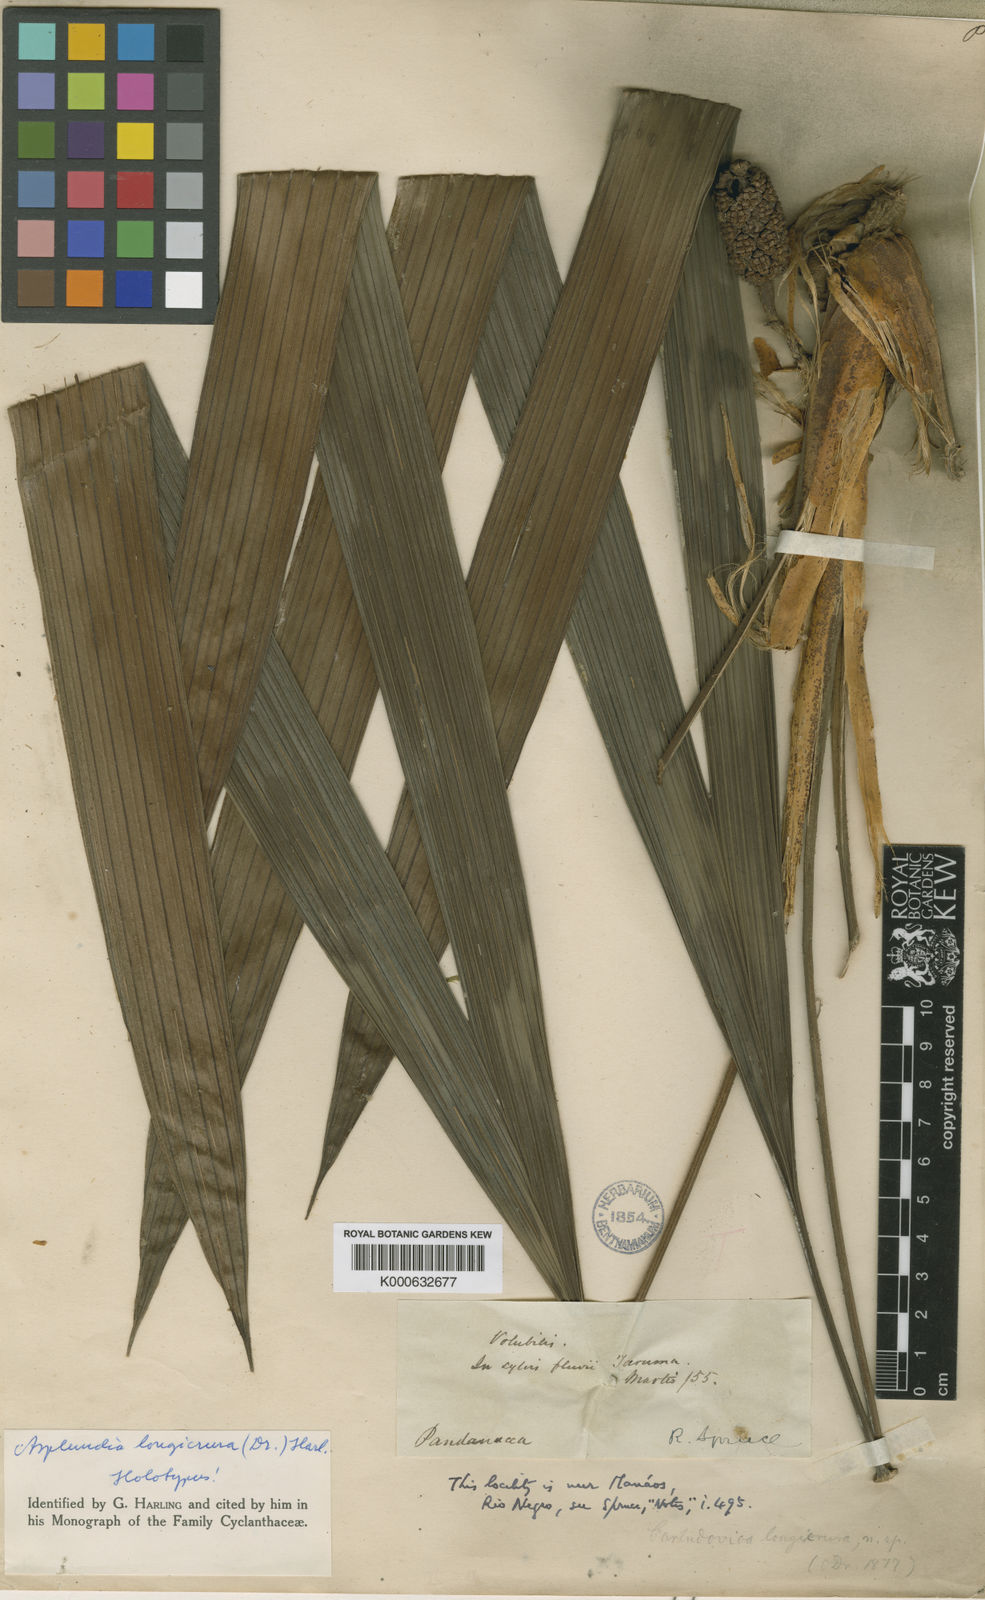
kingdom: Plantae
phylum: Tracheophyta
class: Liliopsida
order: Pandanales
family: Cyclanthaceae
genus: Asplundia
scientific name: Asplundia longicrura
